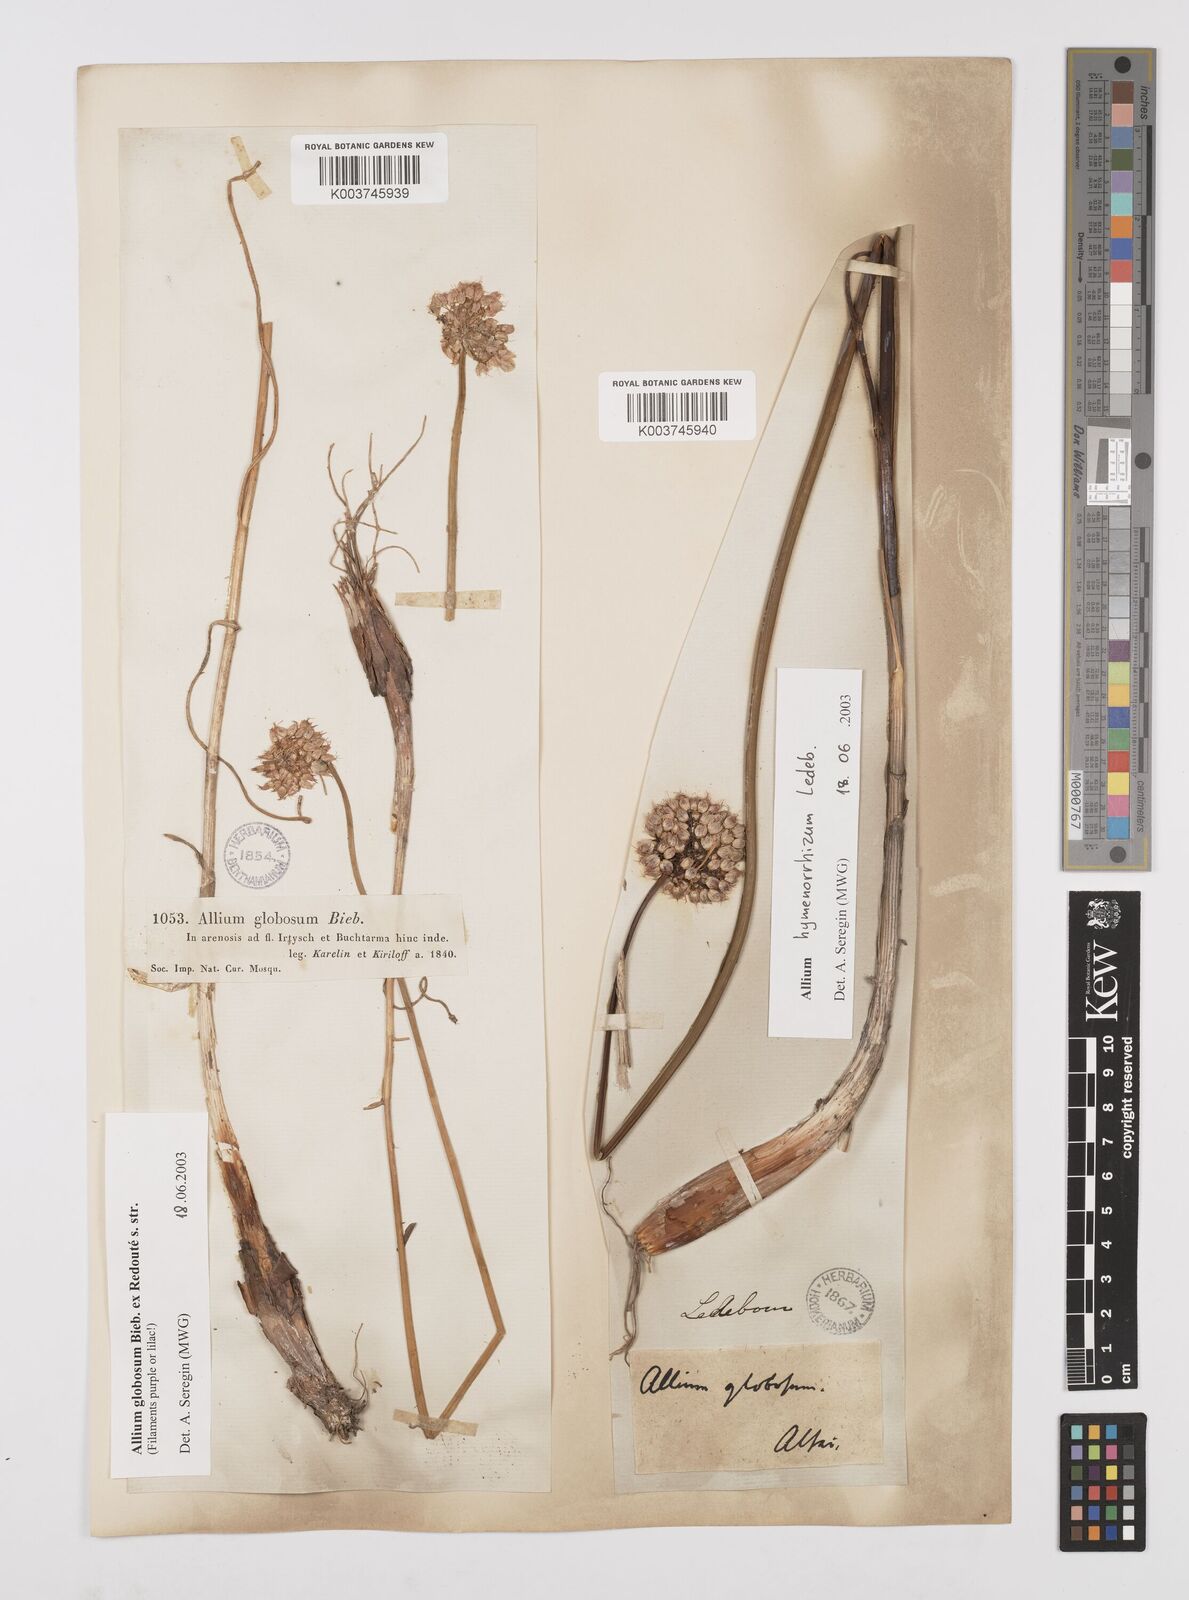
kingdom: Plantae
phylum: Tracheophyta
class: Liliopsida
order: Asparagales
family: Amaryllidaceae
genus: Allium
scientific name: Allium saxatile
